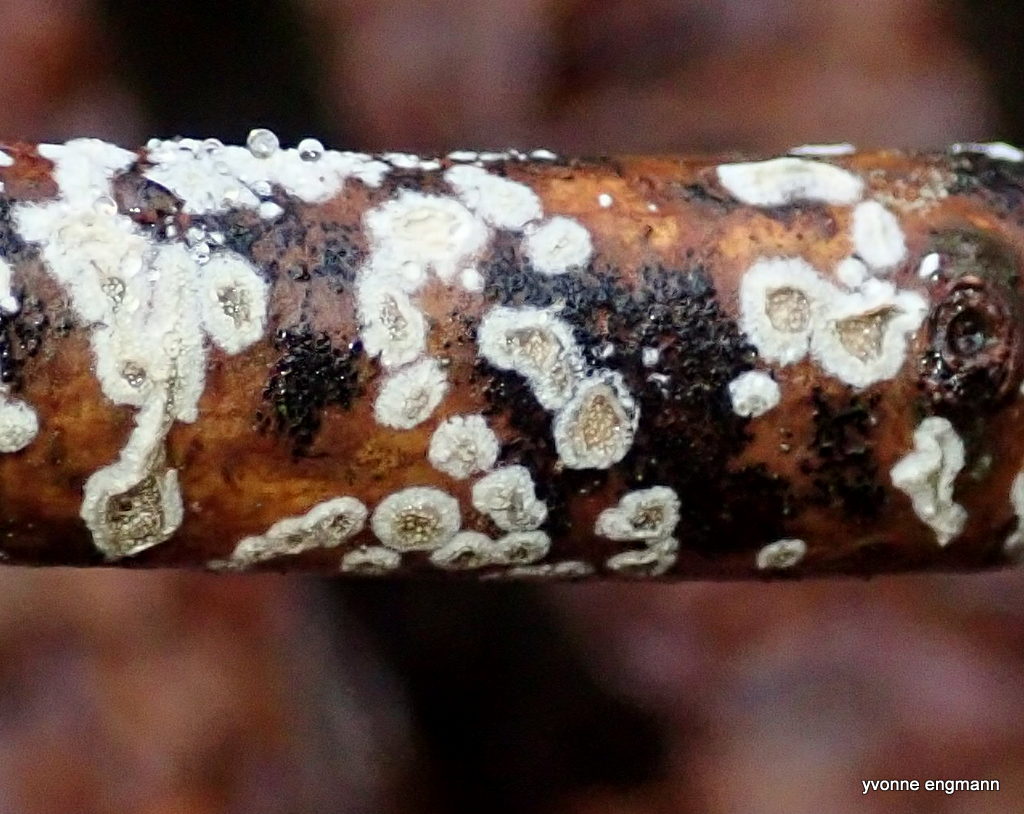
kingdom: Fungi
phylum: Basidiomycota
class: Agaricomycetes
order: Corticiales
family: Corticiaceae
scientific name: Corticiaceae
